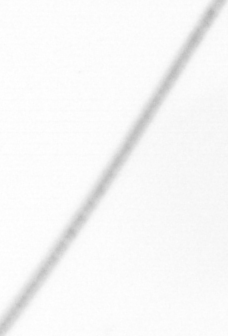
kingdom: Chromista
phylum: Ochrophyta
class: Bacillariophyceae
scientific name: Bacillariophyceae
